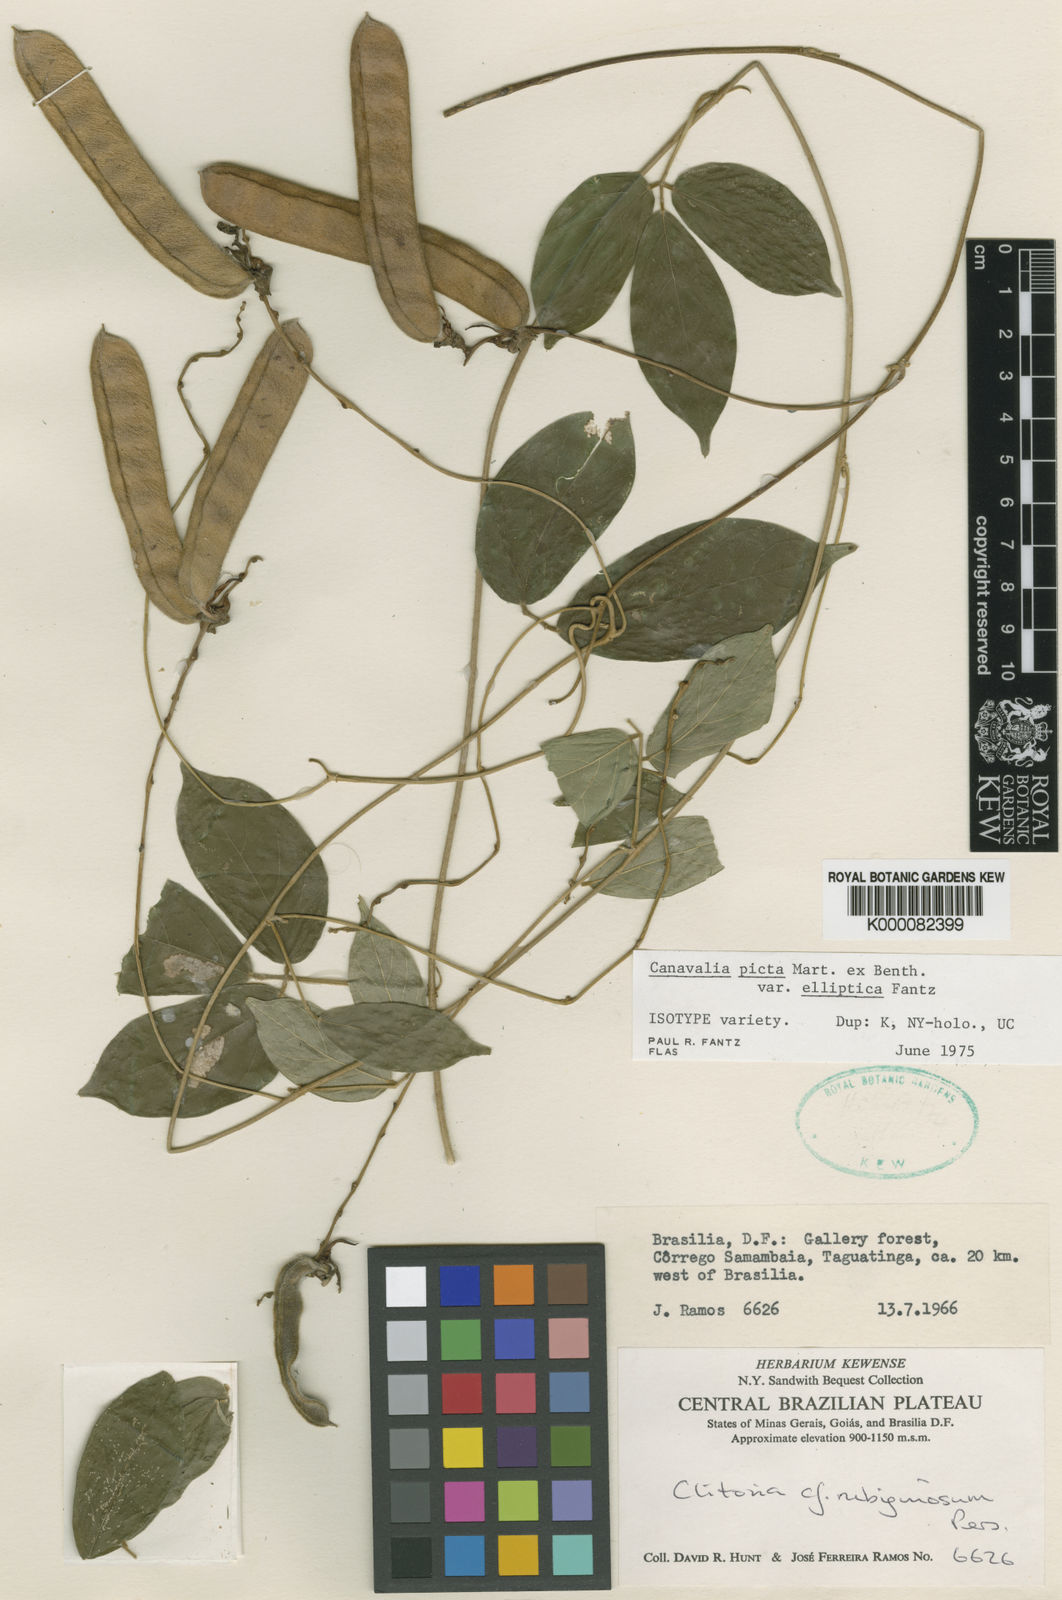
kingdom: Plantae
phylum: Tracheophyta
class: Magnoliopsida
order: Fabales
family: Fabaceae
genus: Canavalia
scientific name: Canavalia picta
